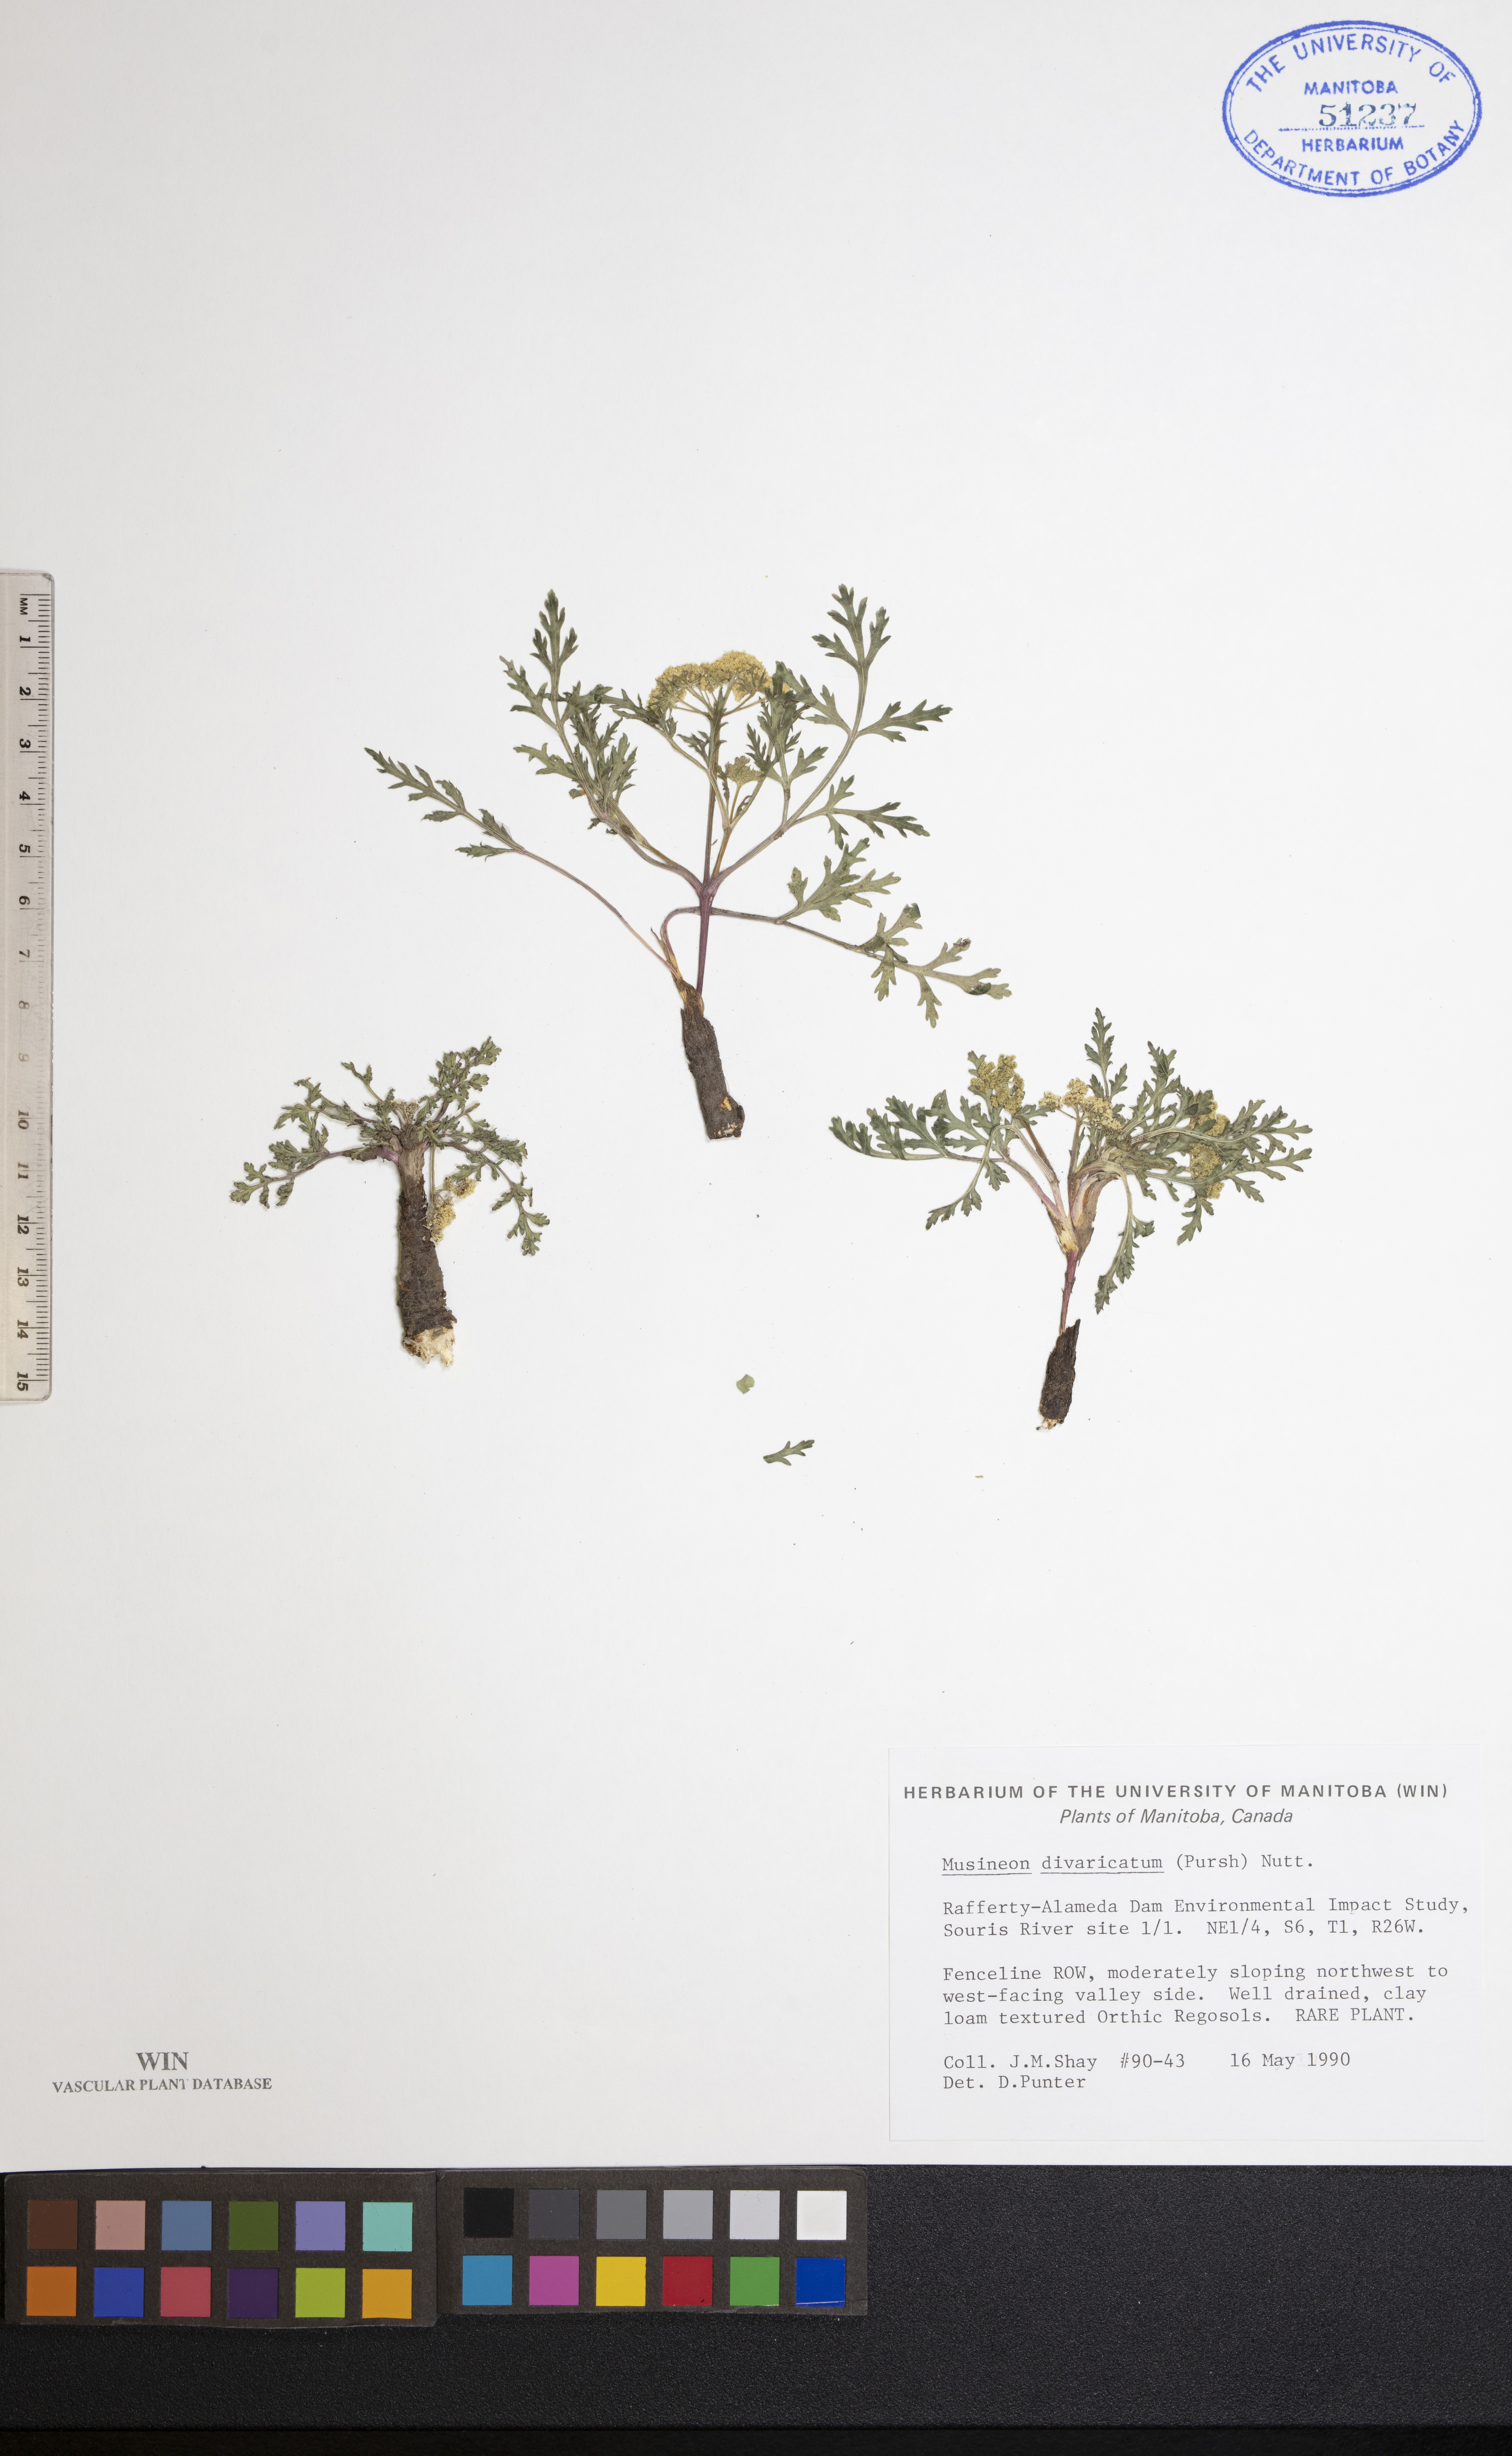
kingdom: Plantae
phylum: Tracheophyta
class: Magnoliopsida
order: Apiales
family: Apiaceae
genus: Musineon
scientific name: Musineon divaricatum
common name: Plains musineon
